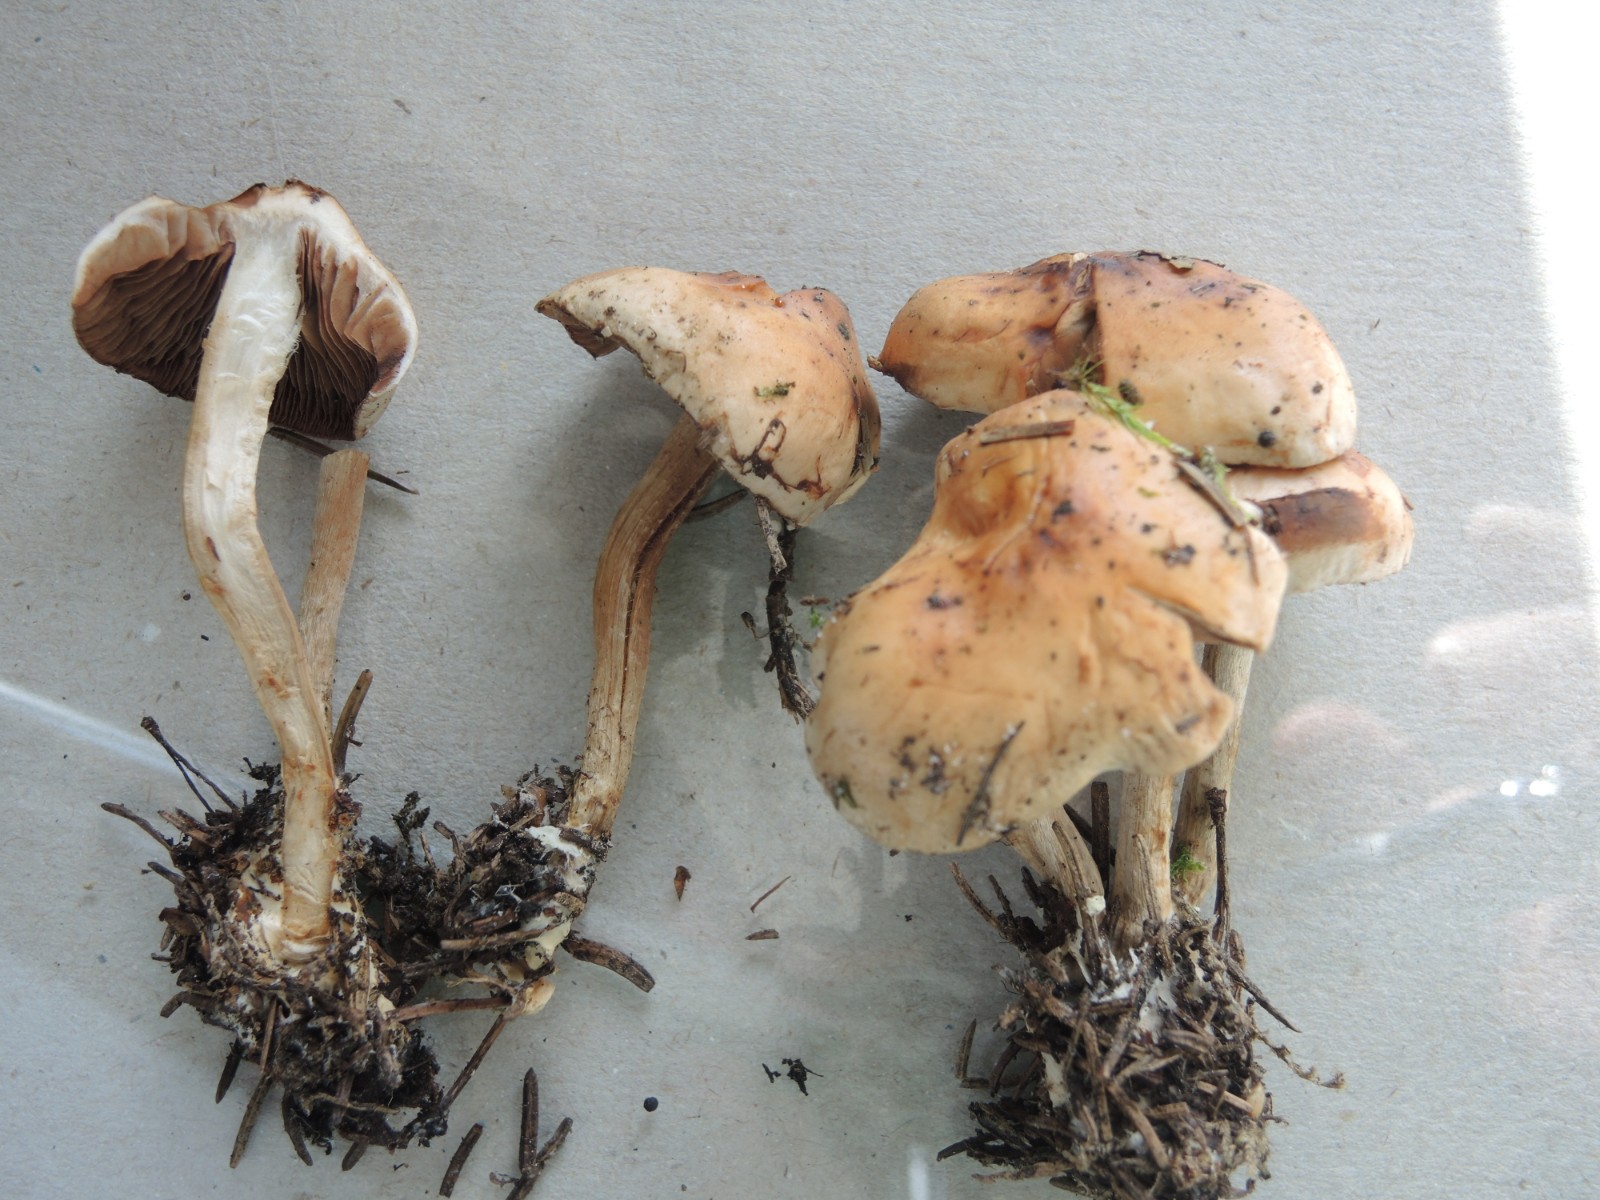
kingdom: Fungi
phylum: Basidiomycota
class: Agaricomycetes
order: Agaricales
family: Hymenogastraceae
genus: Hebeloma
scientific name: Hebeloma birrus
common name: rodslående tåreblad
